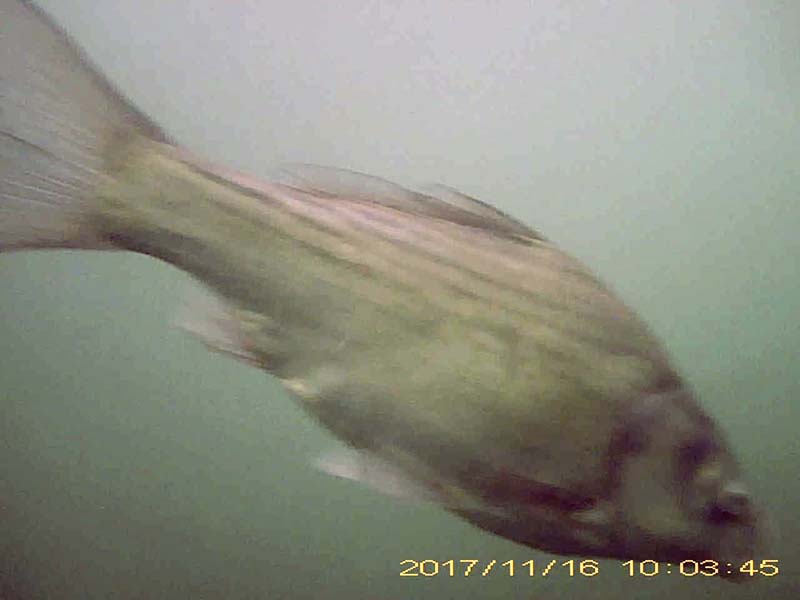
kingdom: Animalia
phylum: Chordata
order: Cypriniformes
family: Cyprinidae
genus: Carassius
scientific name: Carassius cuvieri
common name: ゲンゴロウブナ
